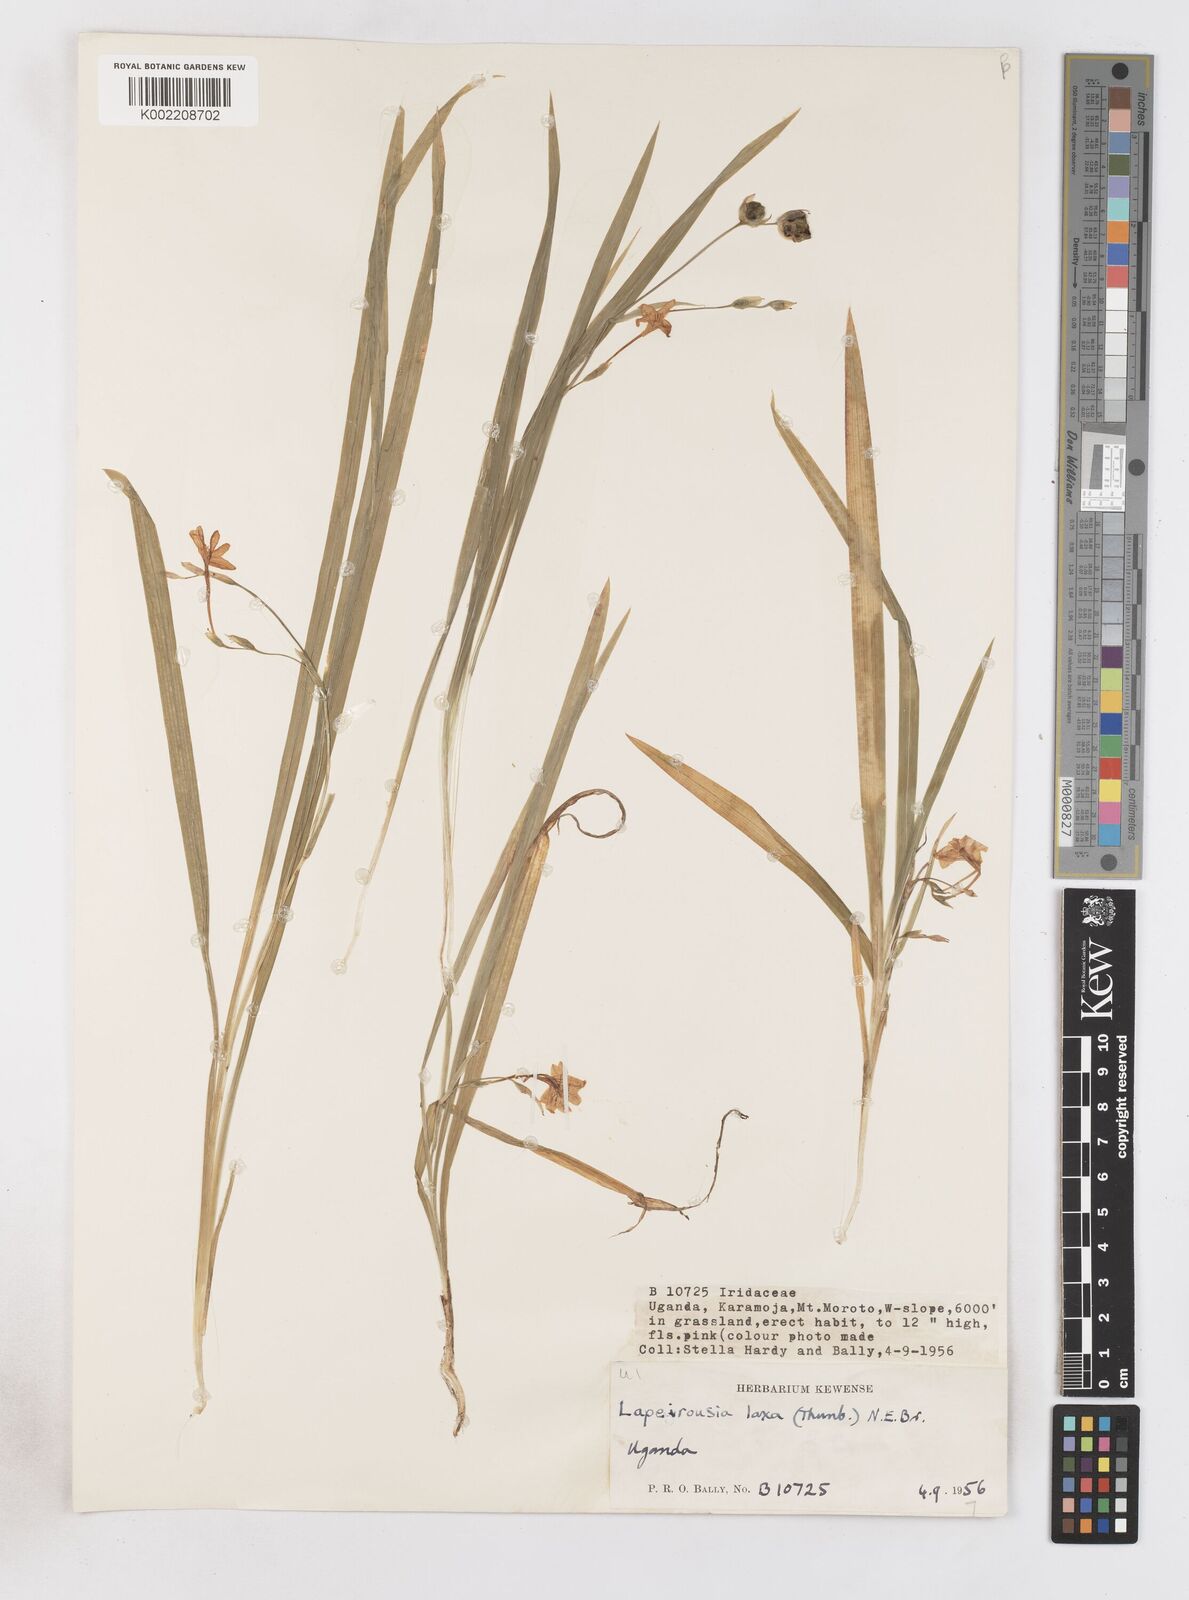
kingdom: Plantae
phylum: Tracheophyta
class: Liliopsida
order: Asparagales
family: Iridaceae
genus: Freesia
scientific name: Freesia laxa
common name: False freesia
